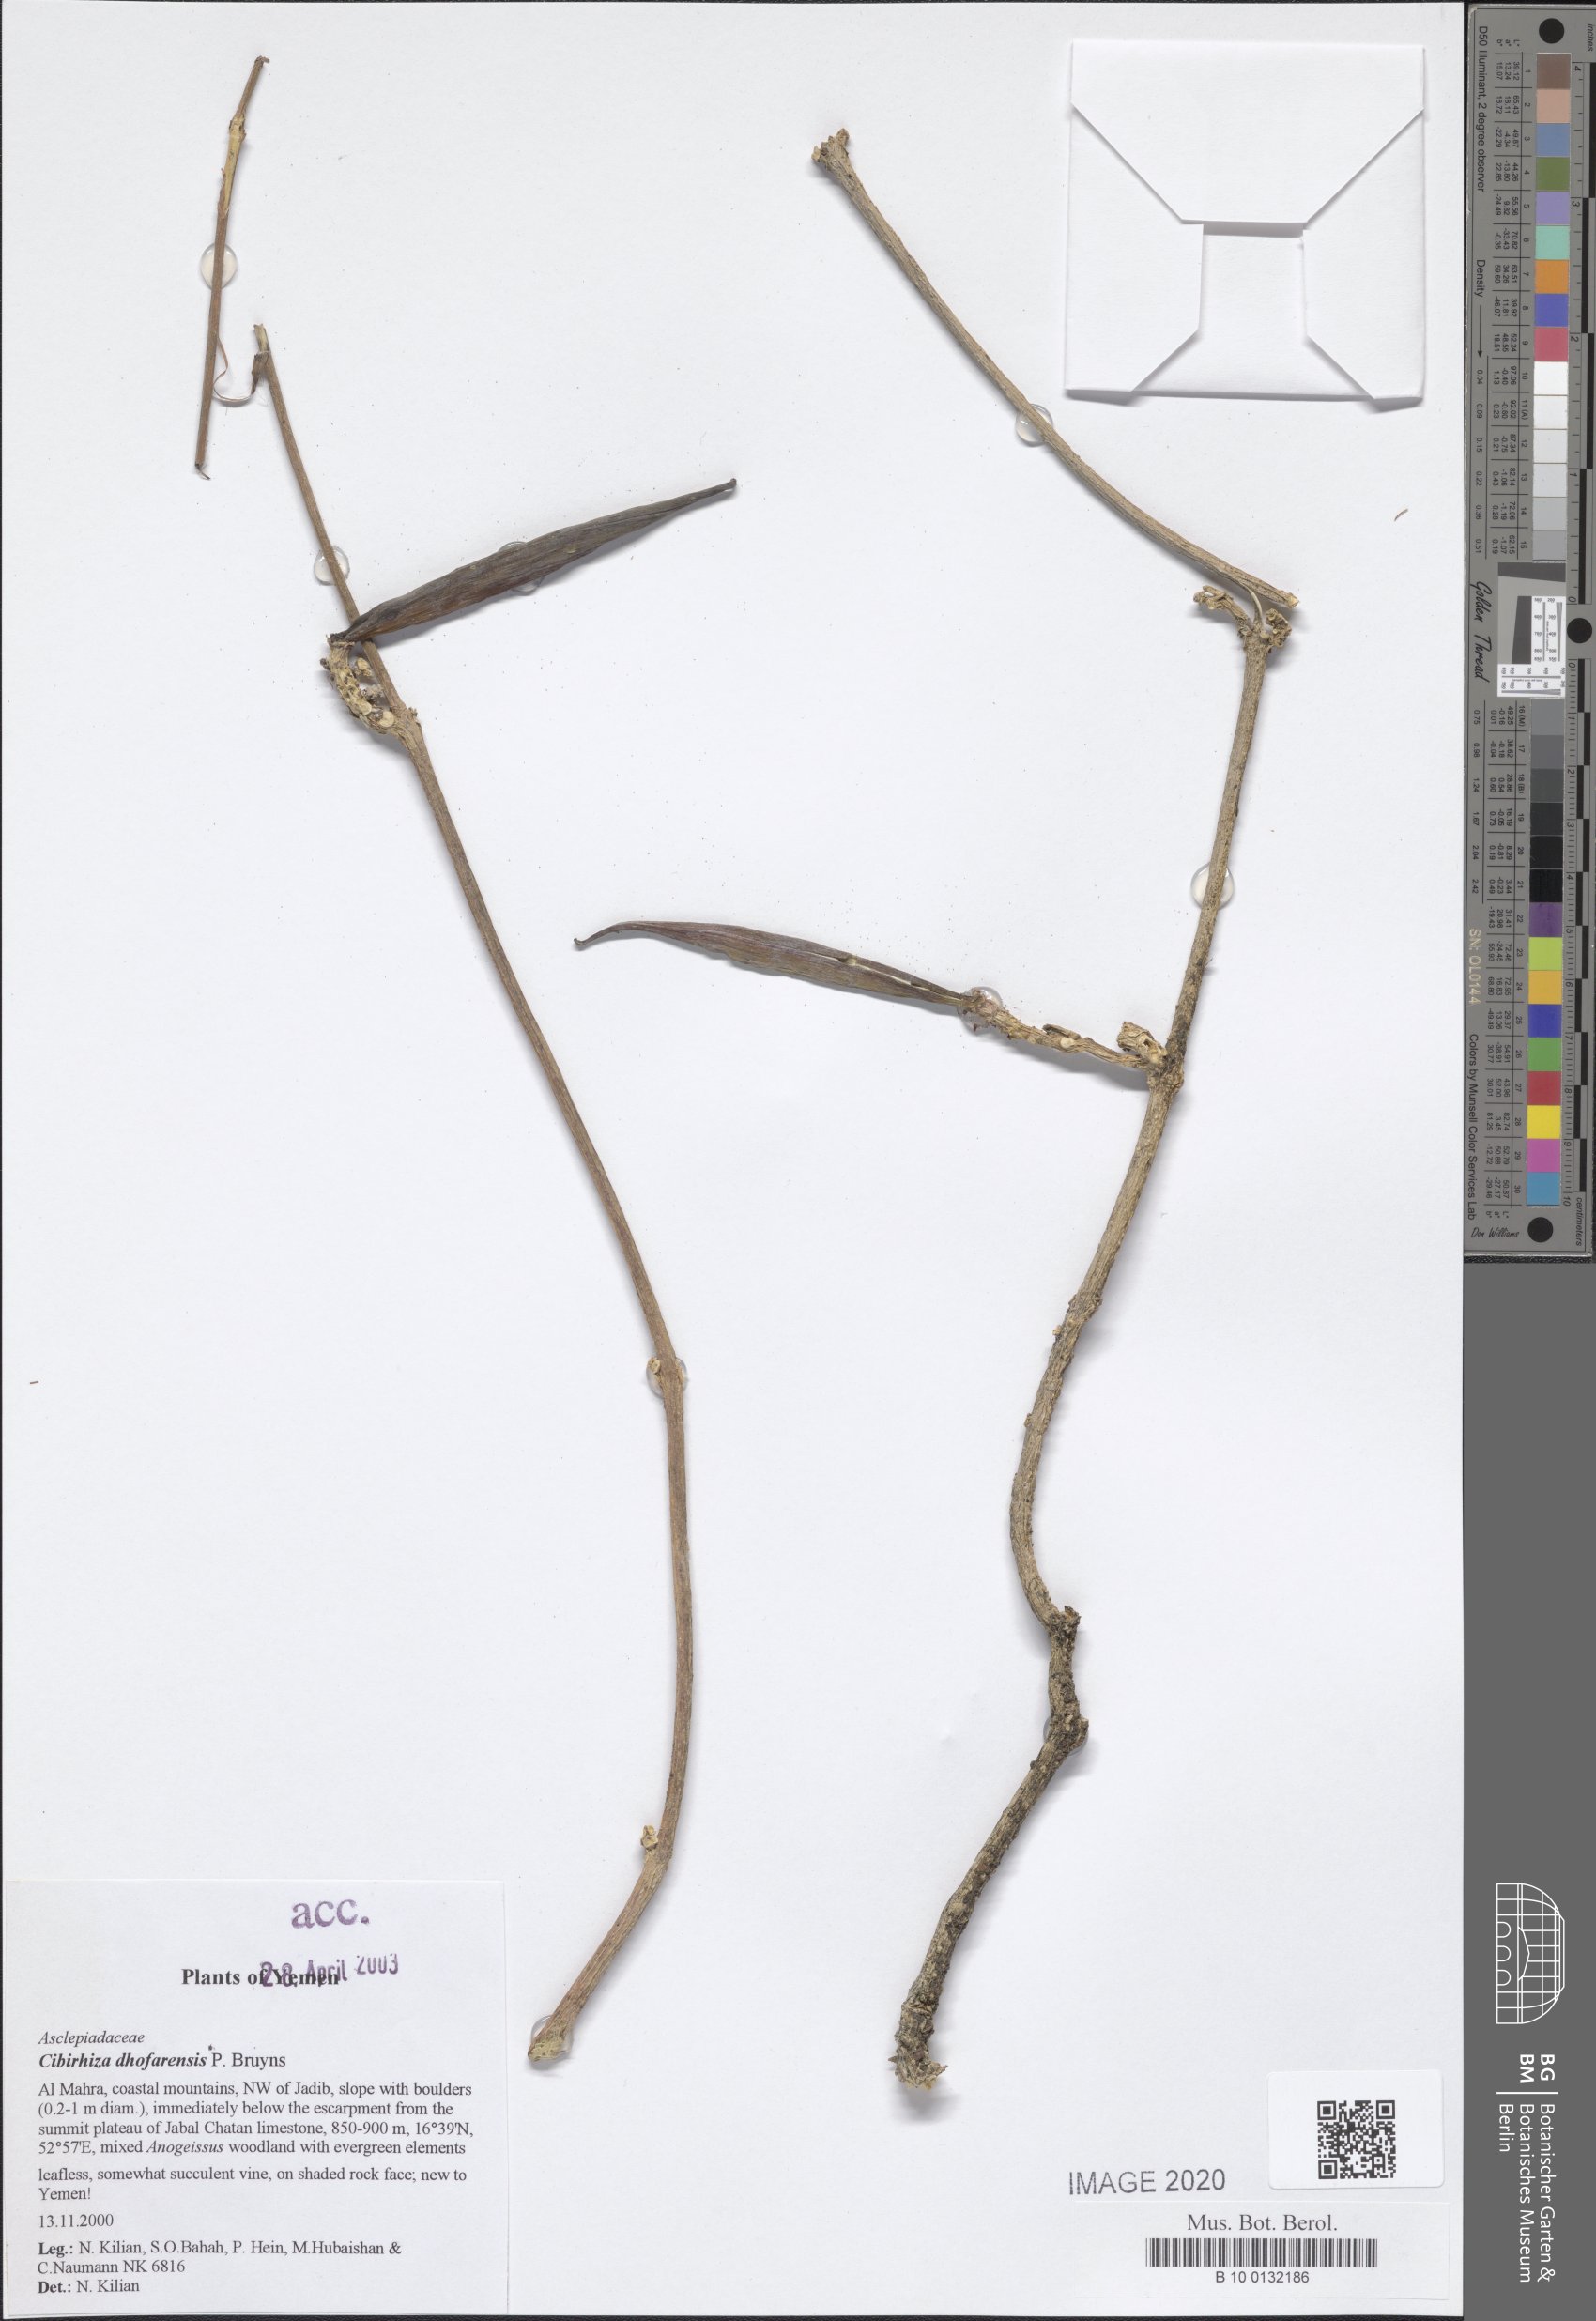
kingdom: Plantae
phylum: Tracheophyta
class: Magnoliopsida
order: Gentianales
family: Apocynaceae
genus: Cibirhiza
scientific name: Cibirhiza dhofarensis
